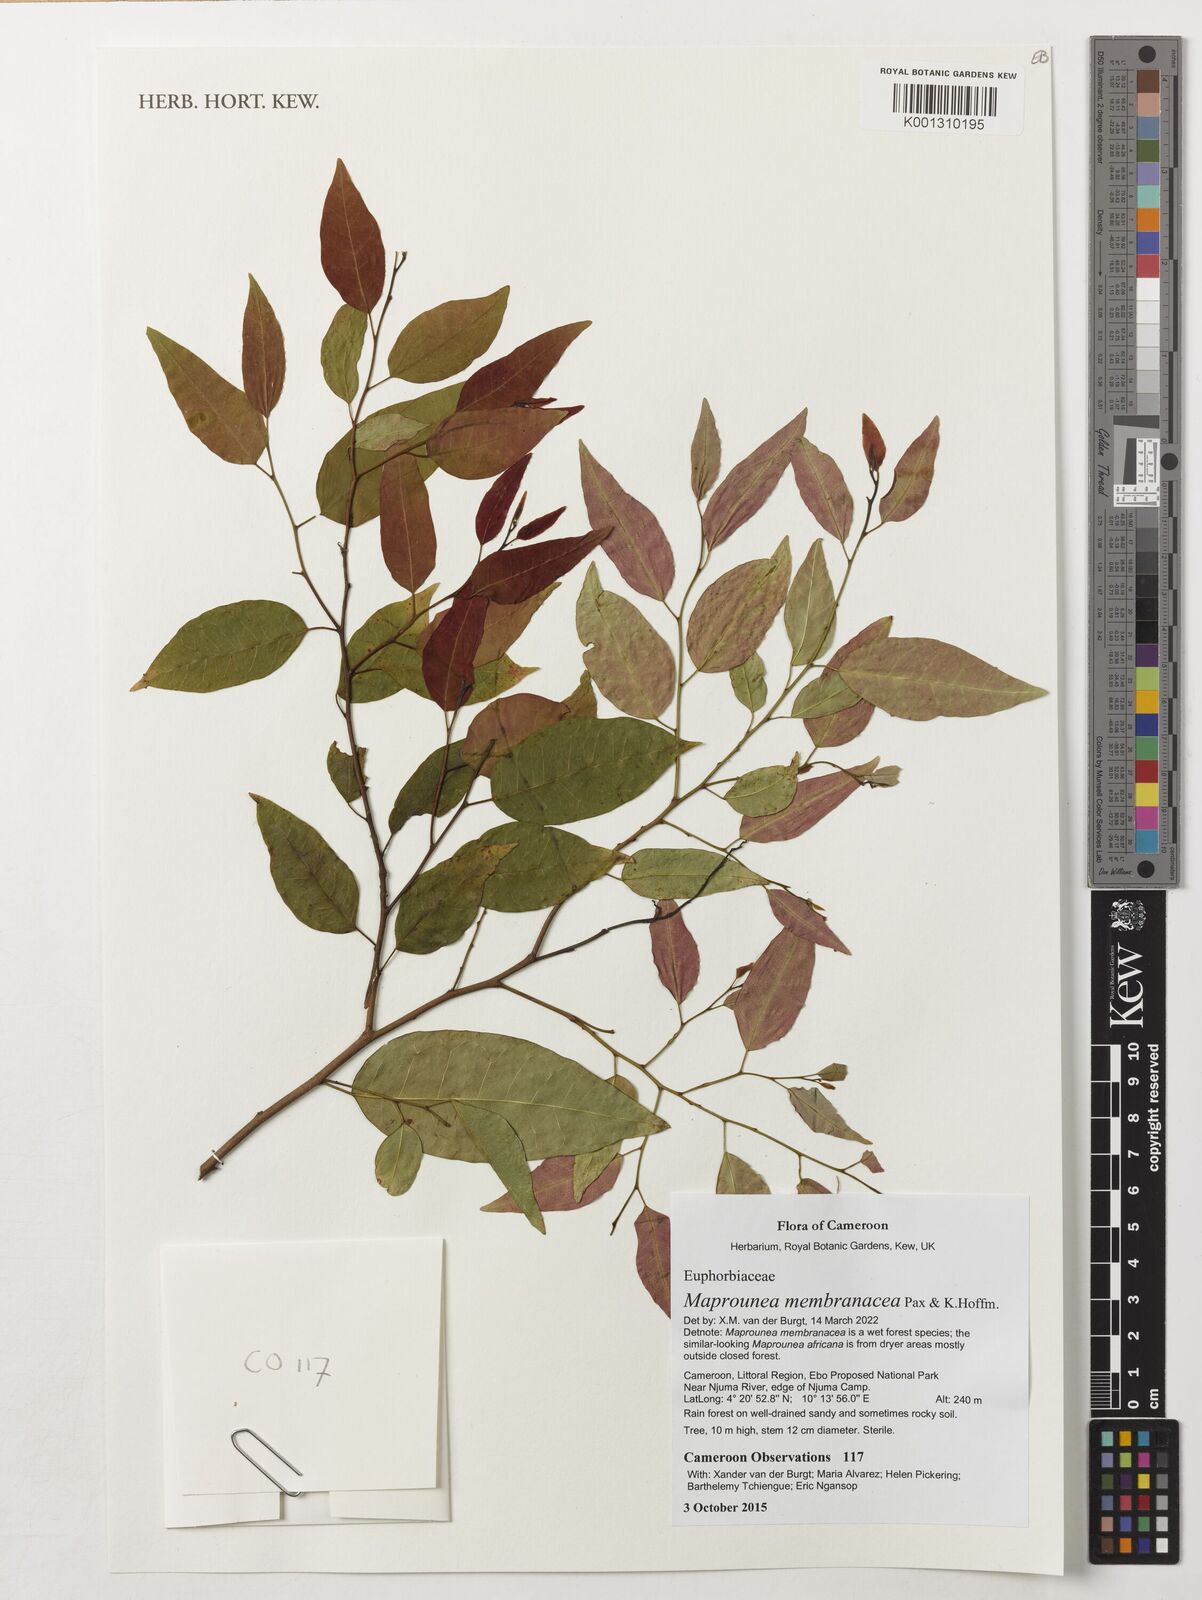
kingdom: Plantae
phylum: Tracheophyta
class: Magnoliopsida
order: Malpighiales
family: Euphorbiaceae
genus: Maprounea
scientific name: Maprounea membranacea
